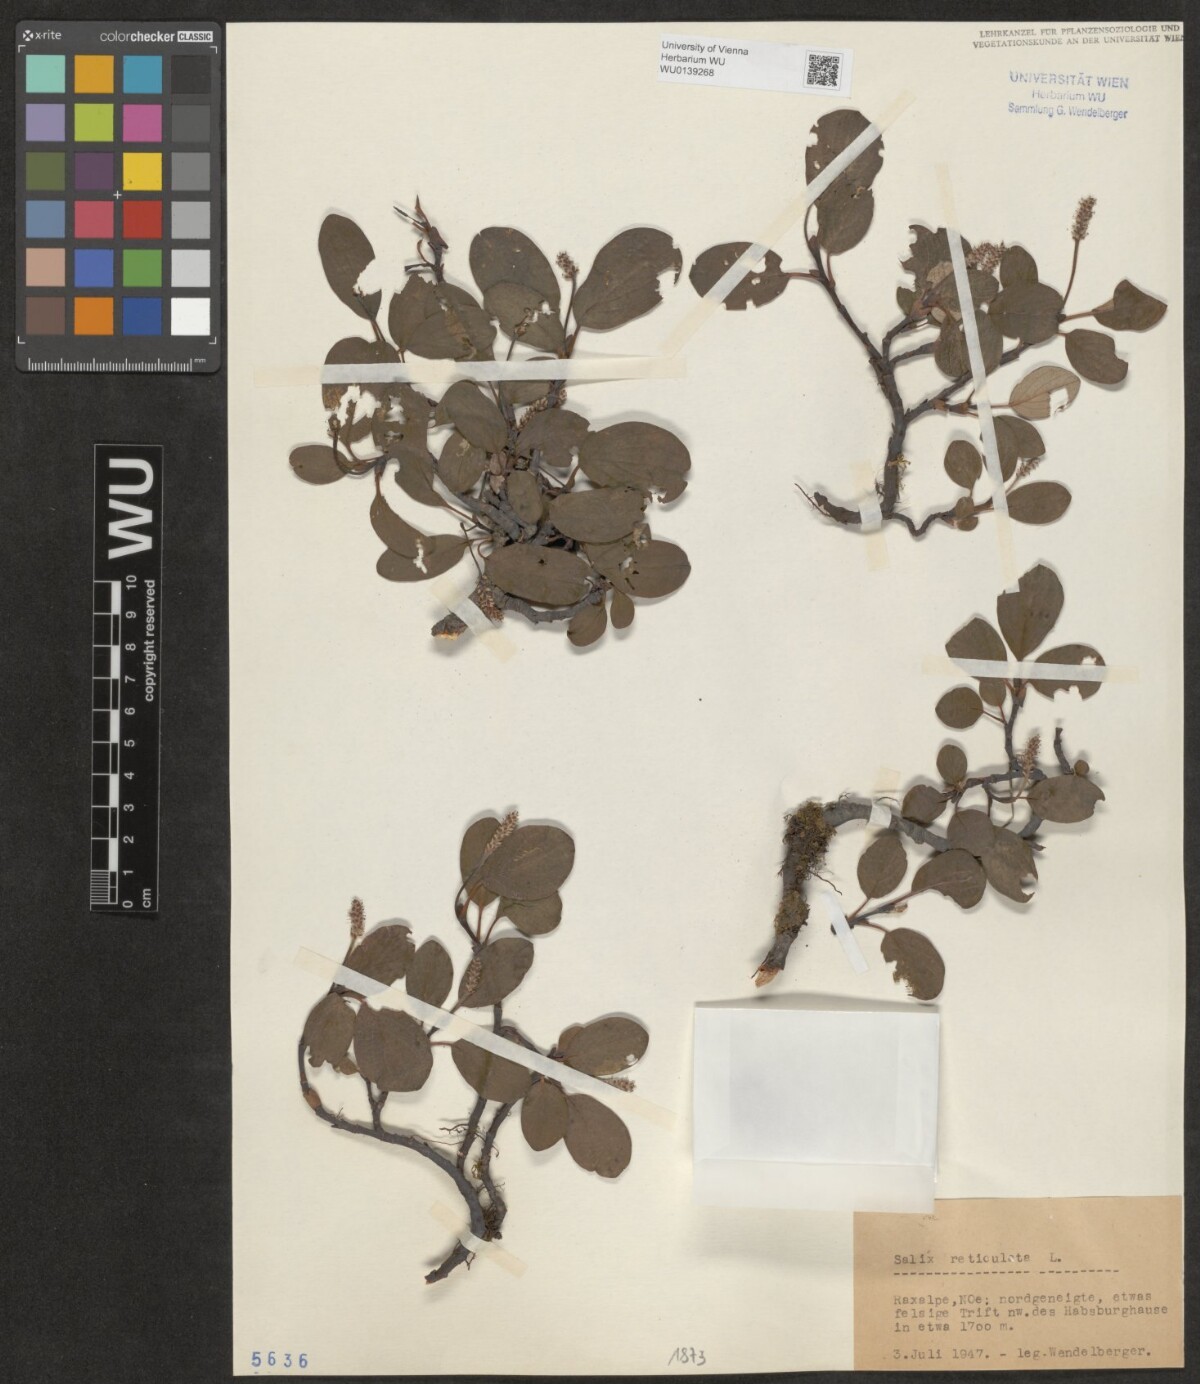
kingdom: Plantae
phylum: Tracheophyta
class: Magnoliopsida
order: Malpighiales
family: Salicaceae
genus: Salix
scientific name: Salix reticulata
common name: Net-leaved willow
